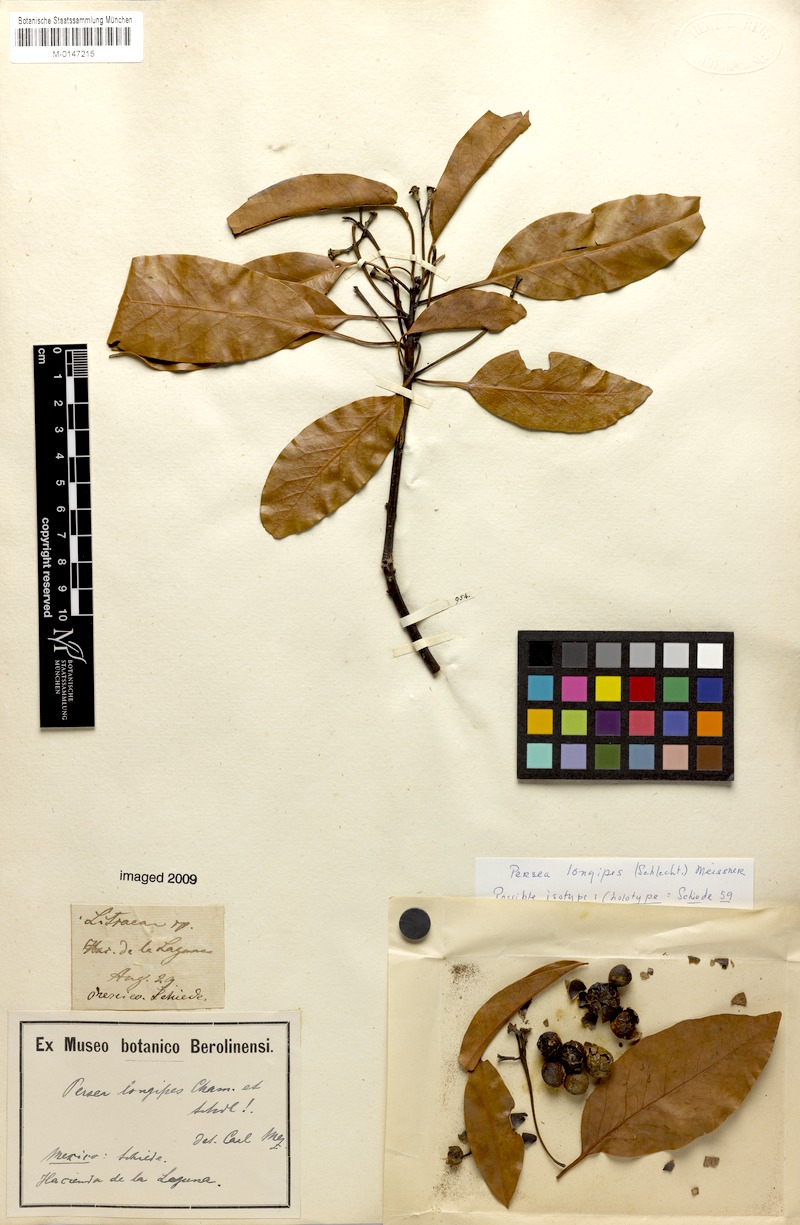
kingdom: Plantae
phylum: Tracheophyta
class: Magnoliopsida
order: Laurales
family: Lauraceae
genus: Persea
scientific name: Persea longipes
